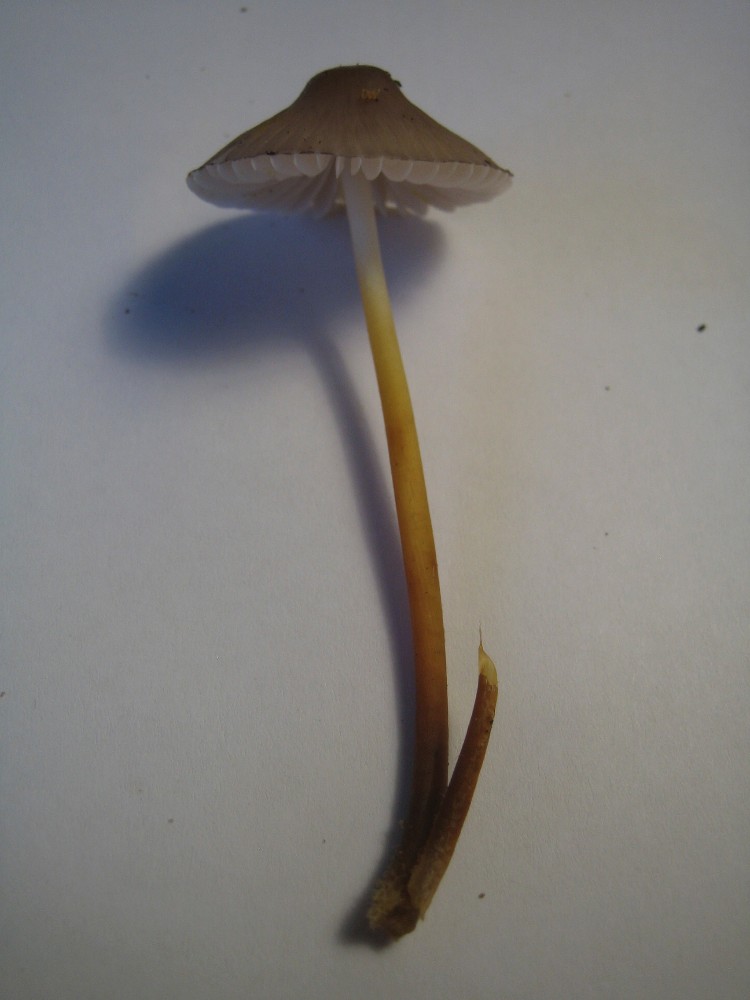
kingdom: Fungi
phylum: Basidiomycota
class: Agaricomycetes
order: Agaricales
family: Mycenaceae
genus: Mycena
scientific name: Mycena inclinata
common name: nikkende huesvamp
